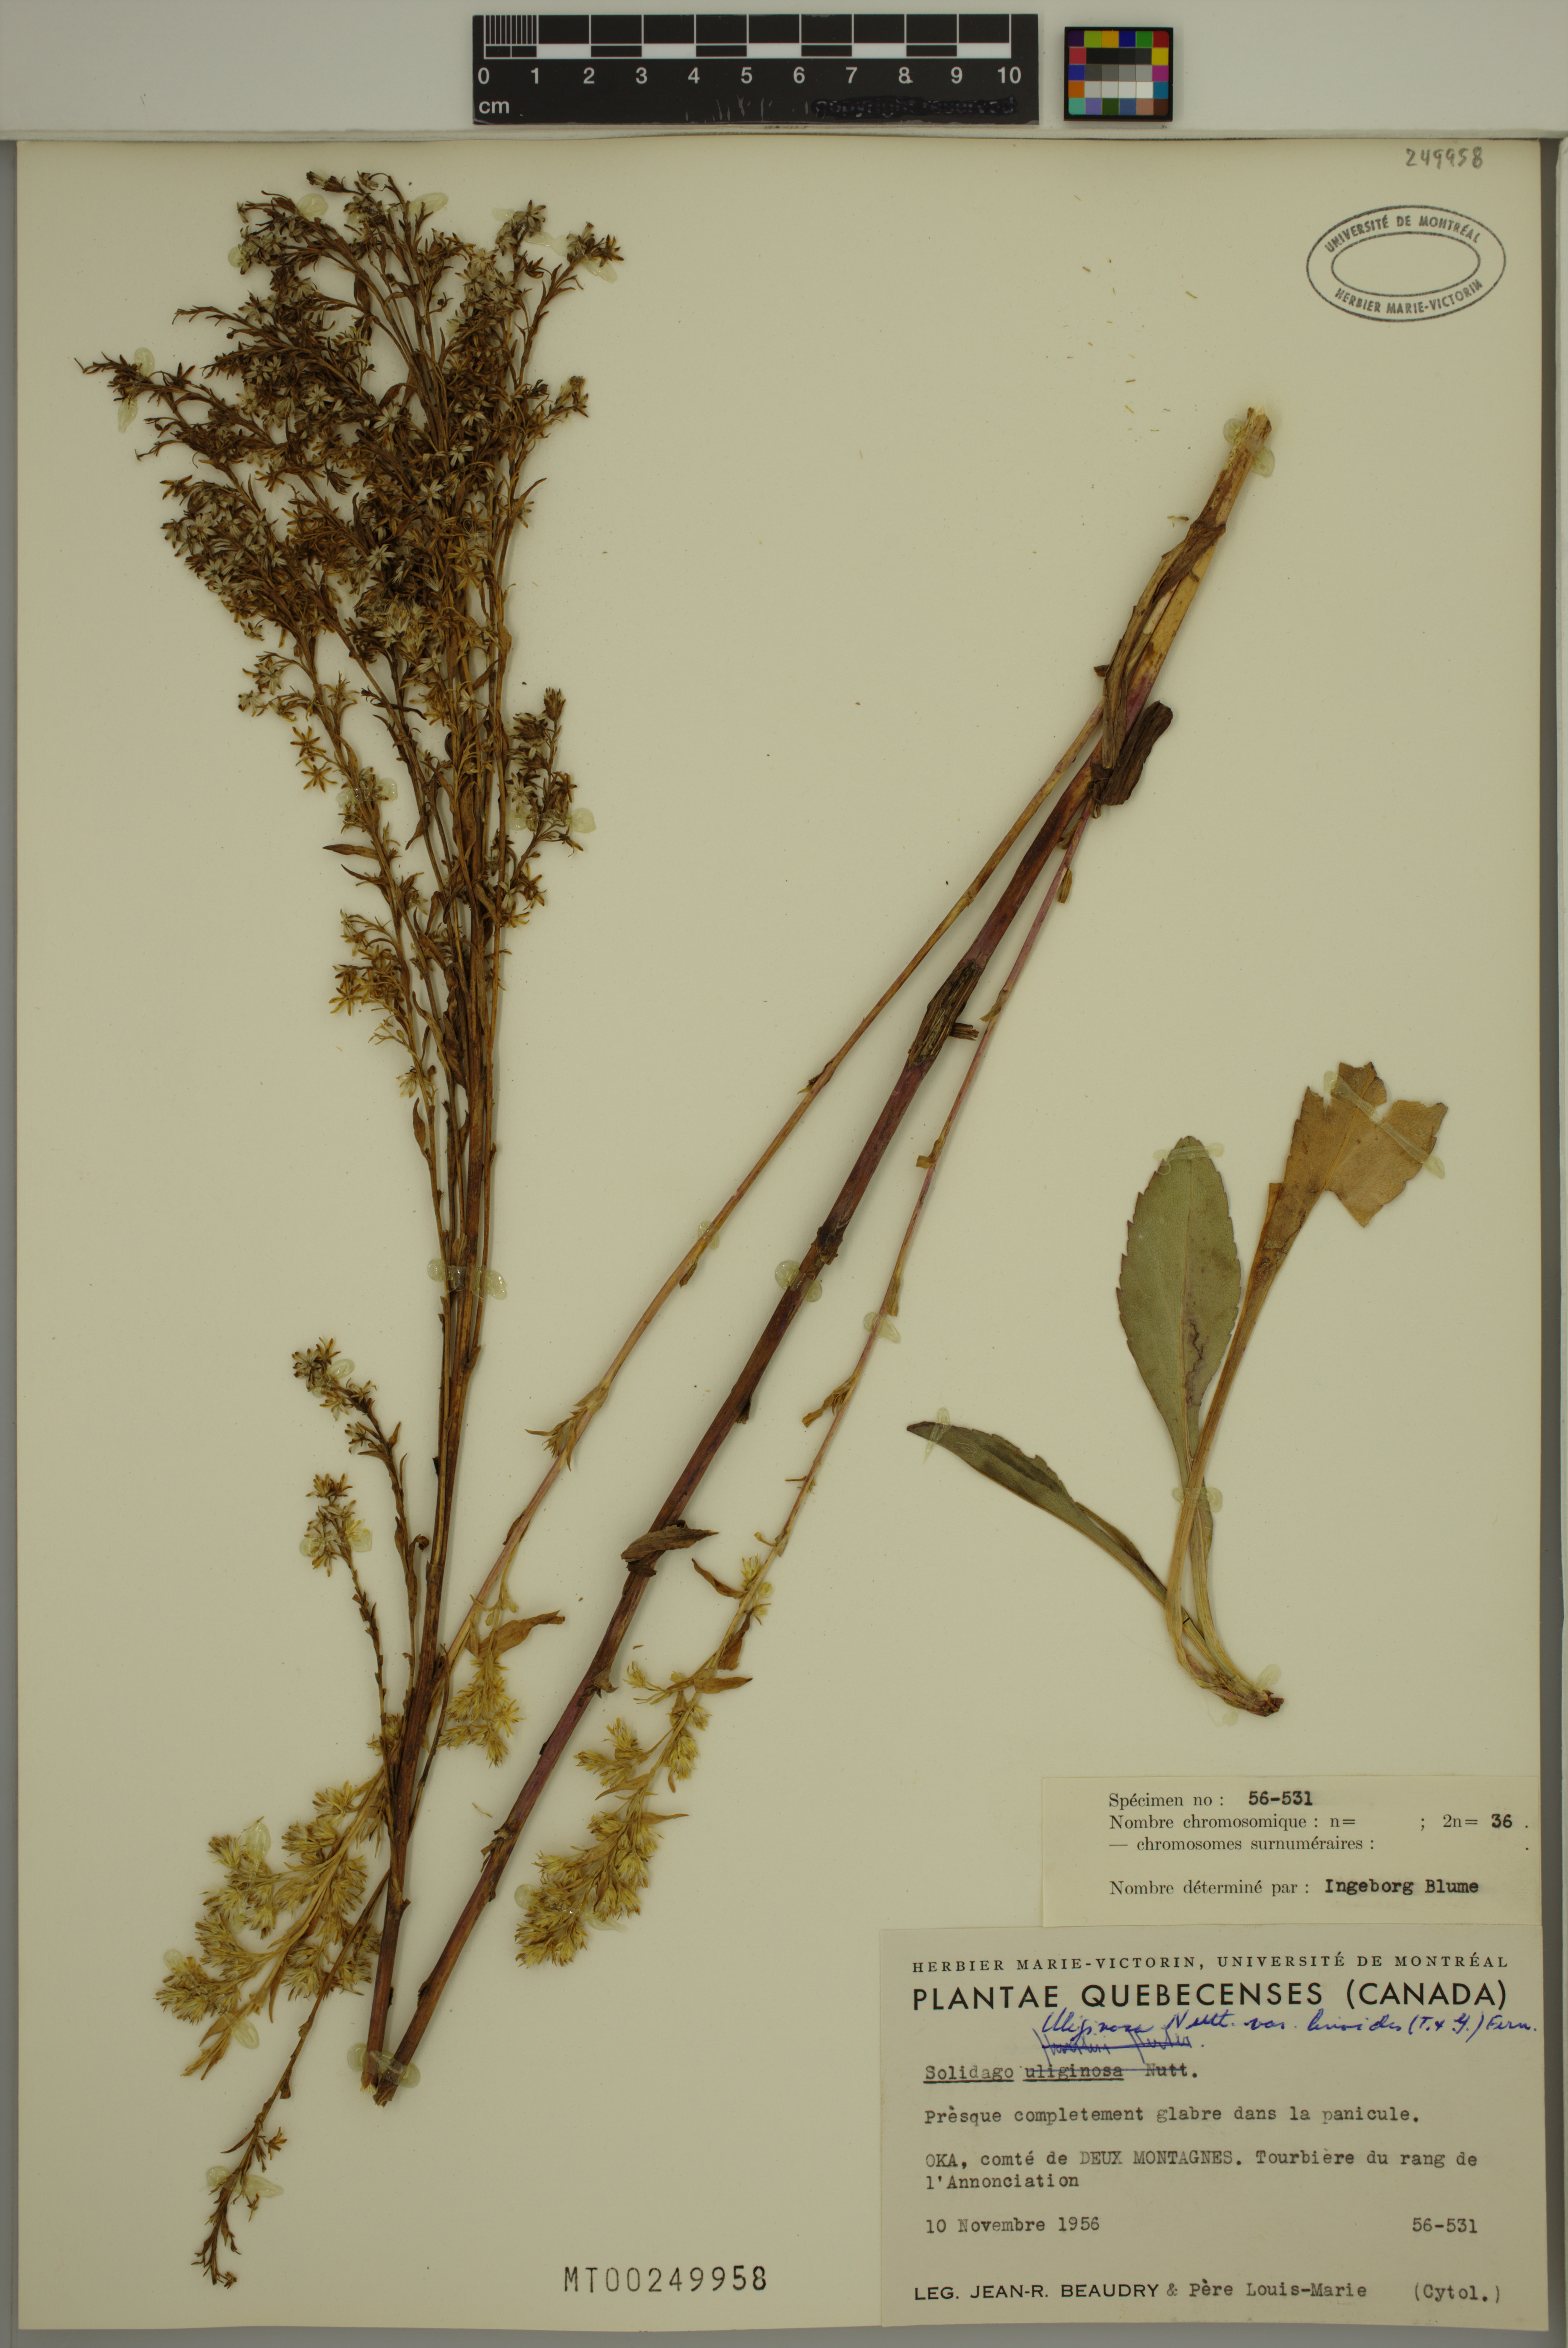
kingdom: Plantae
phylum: Tracheophyta
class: Magnoliopsida
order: Asterales
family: Asteraceae
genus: Solidago
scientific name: Solidago uliginosa
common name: Bog goldenrod
